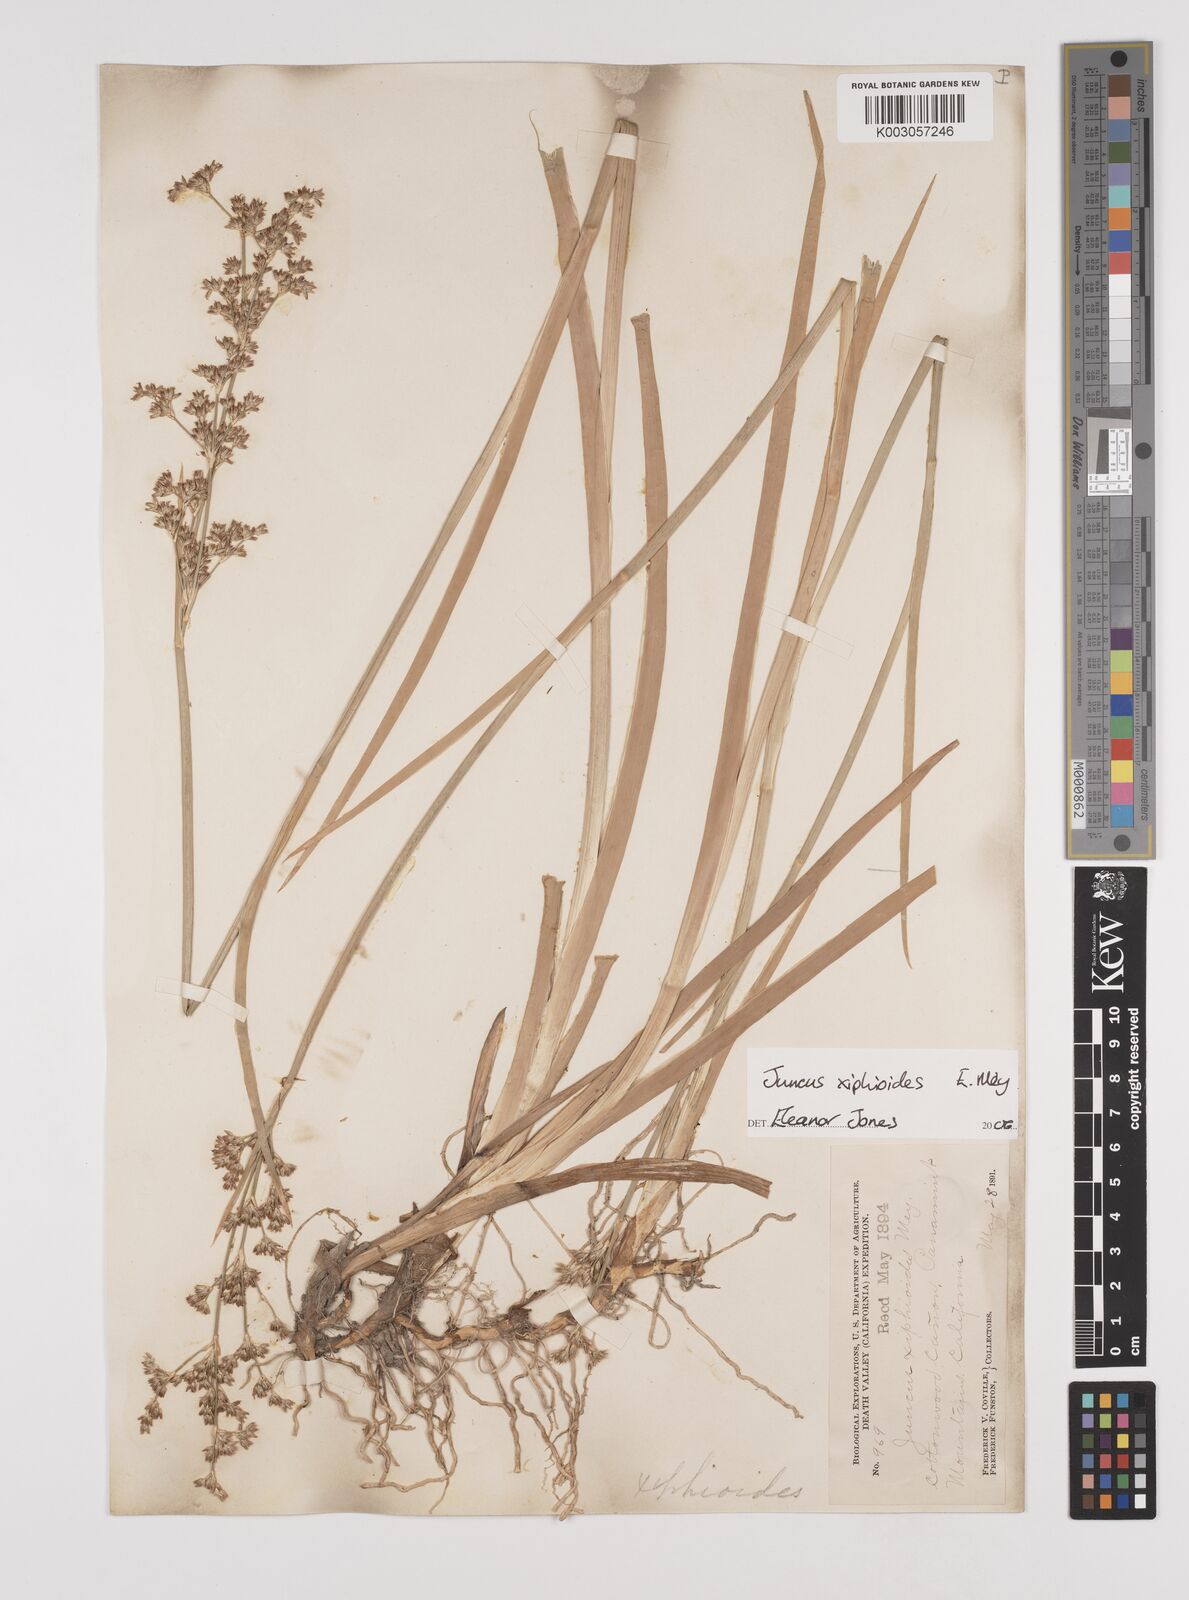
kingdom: Plantae
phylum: Tracheophyta
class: Liliopsida
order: Poales
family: Juncaceae
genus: Juncus
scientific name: Juncus xiphioides
